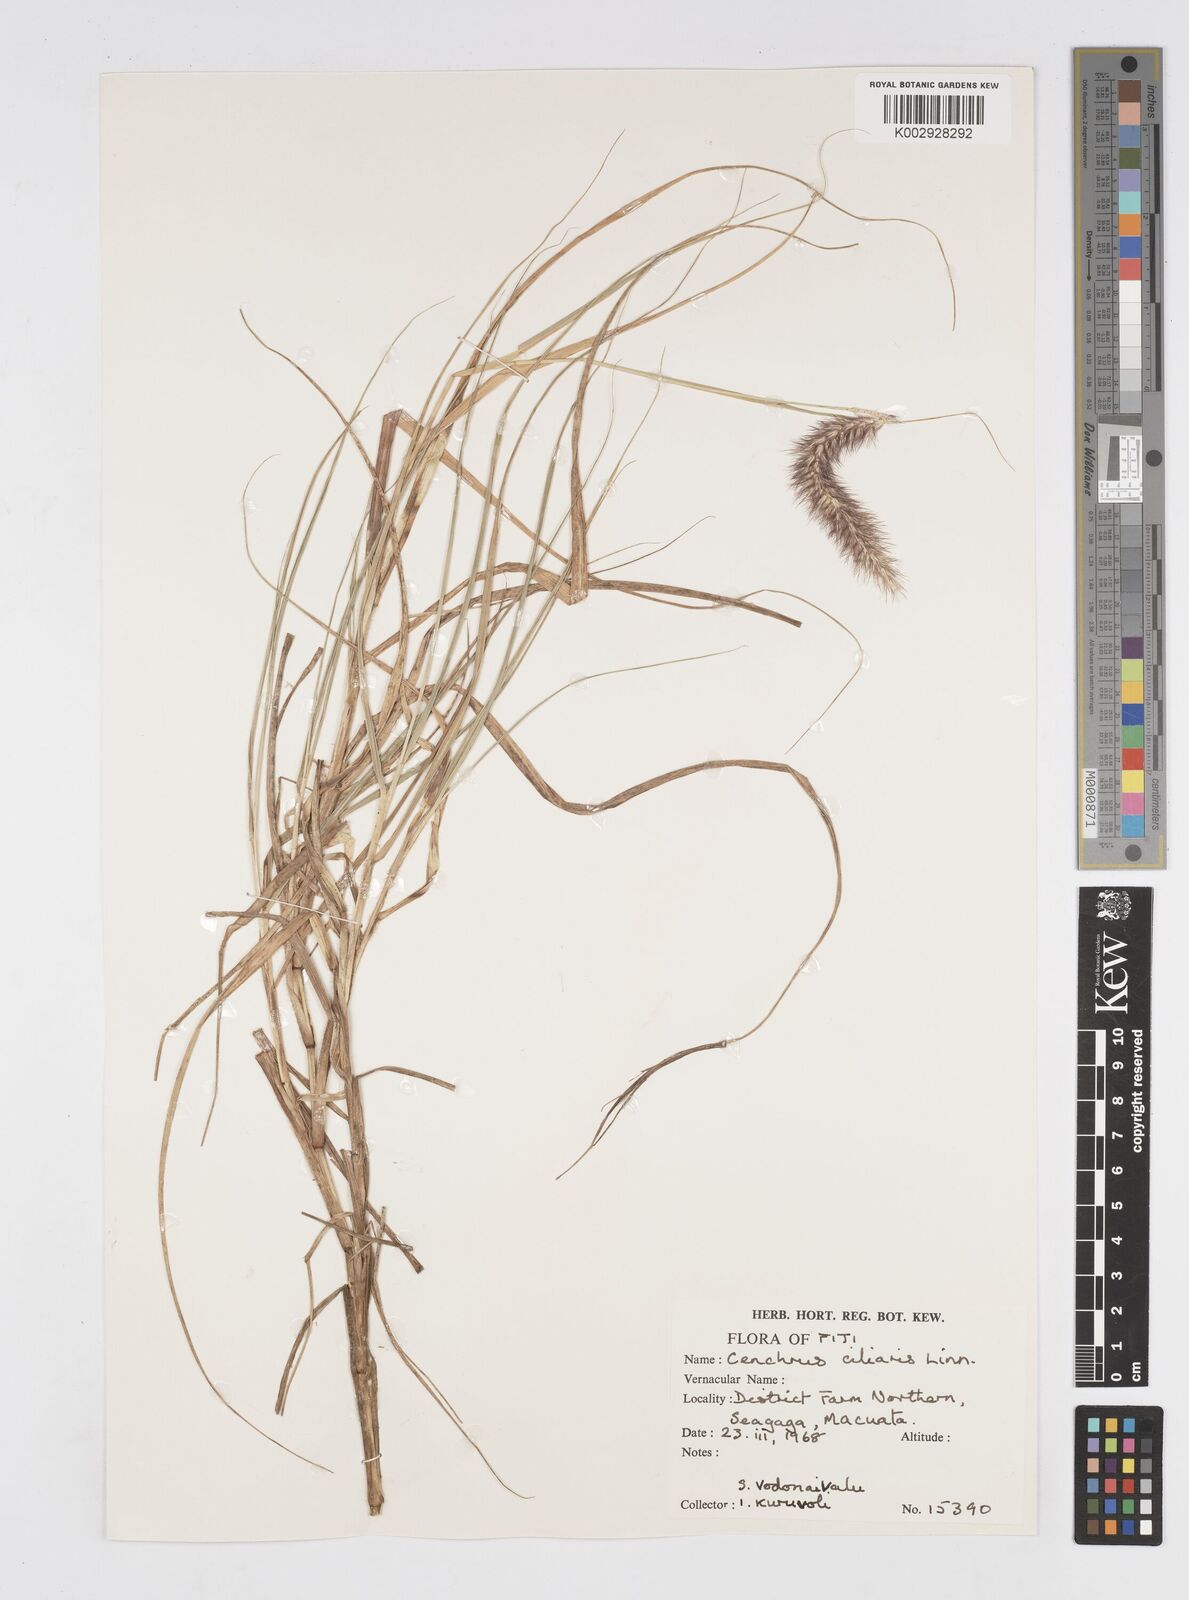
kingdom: Plantae
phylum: Tracheophyta
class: Liliopsida
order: Poales
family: Poaceae
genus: Cenchrus
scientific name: Cenchrus ciliaris
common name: Buffelgrass
